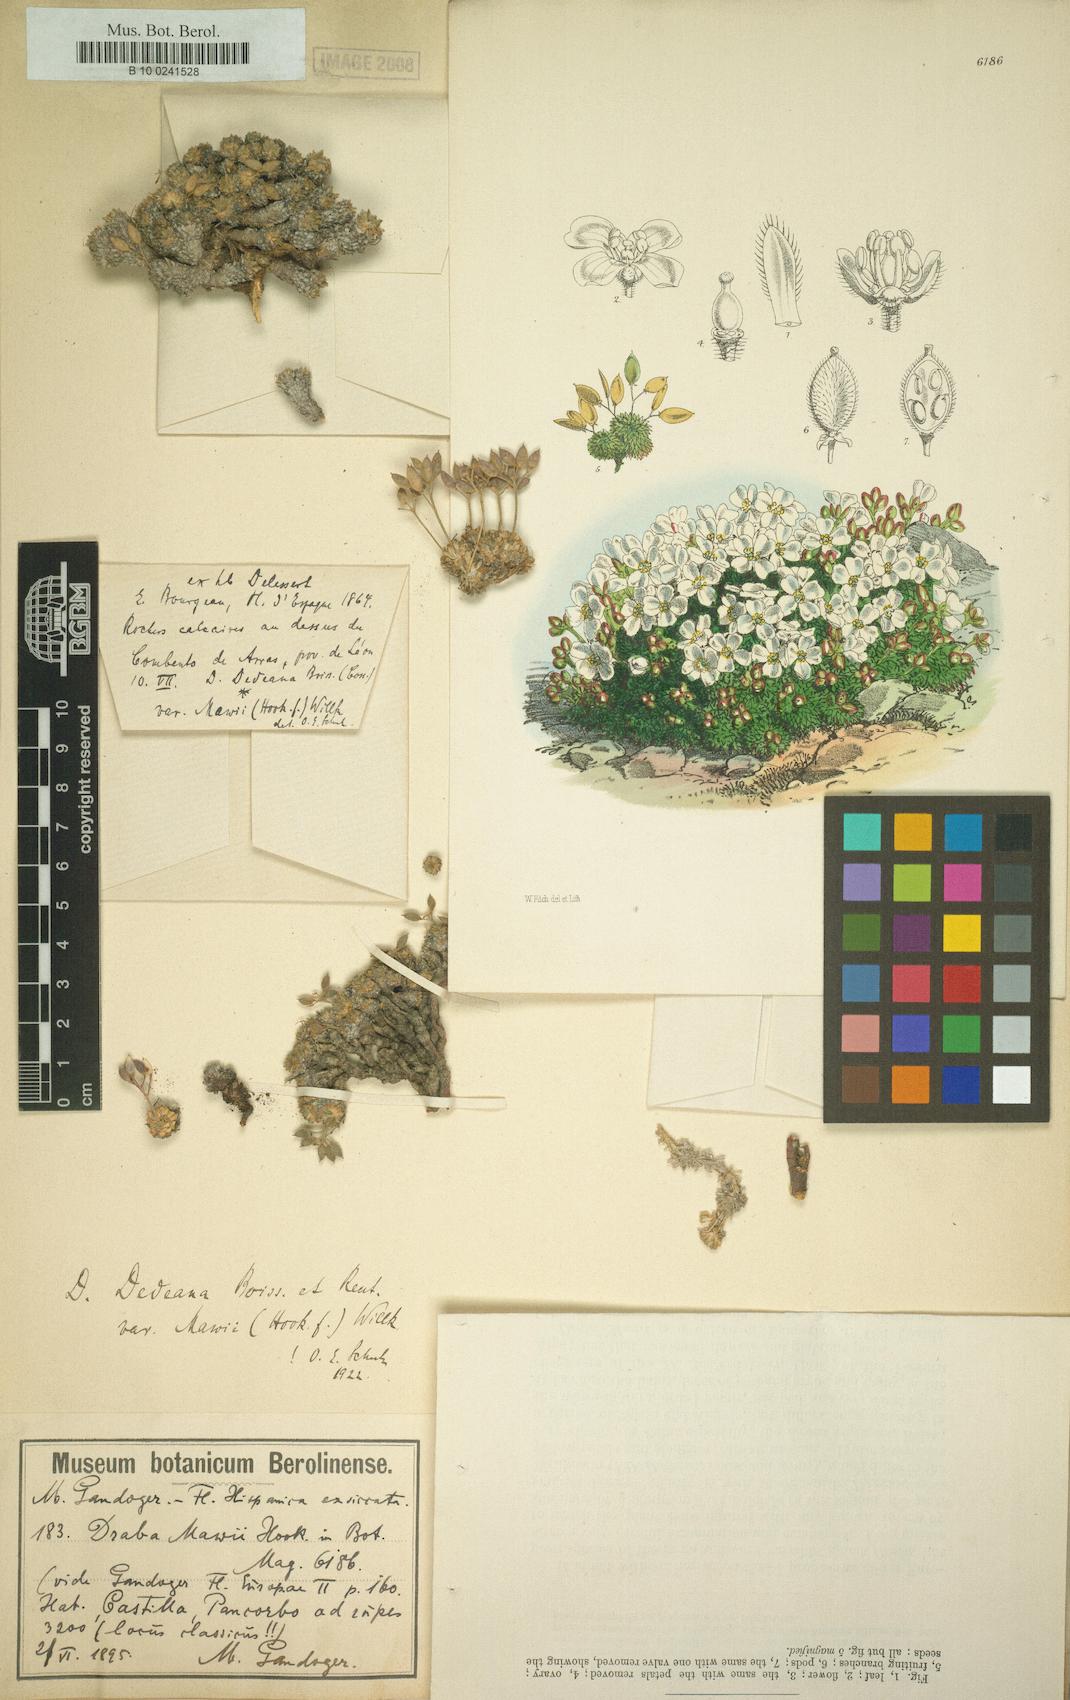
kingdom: Plantae
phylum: Tracheophyta
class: Magnoliopsida
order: Brassicales
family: Brassicaceae
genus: Draba
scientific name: Draba dedeana
